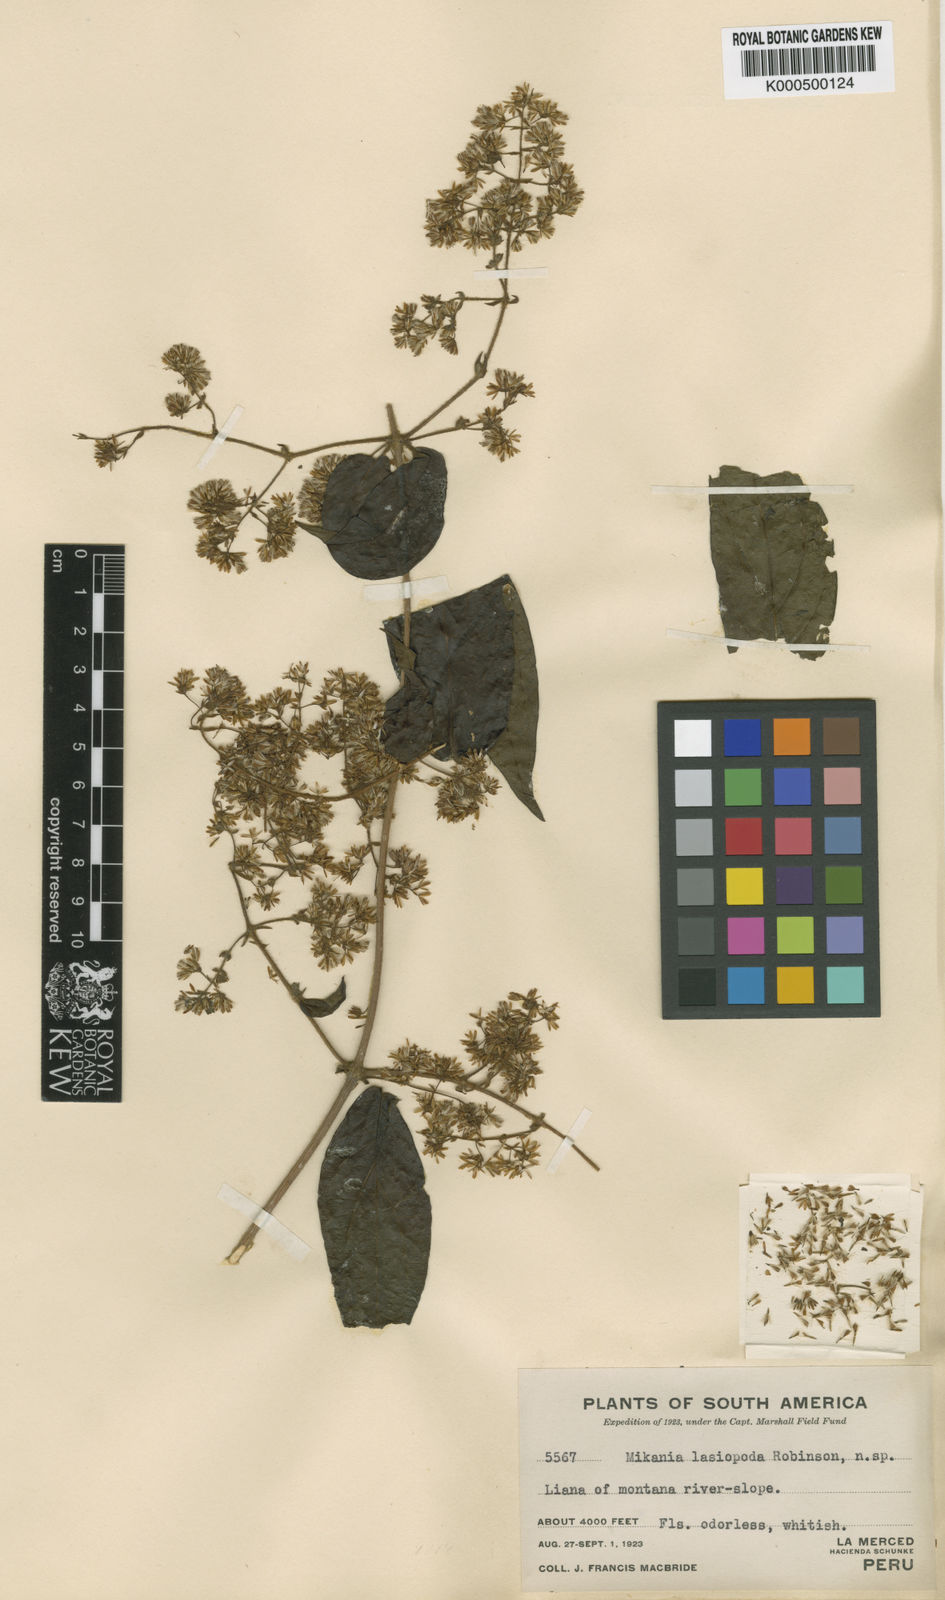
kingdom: Plantae
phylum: Tracheophyta
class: Magnoliopsida
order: Asterales
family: Asteraceae
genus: Mikania
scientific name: Mikania lasiopoda
